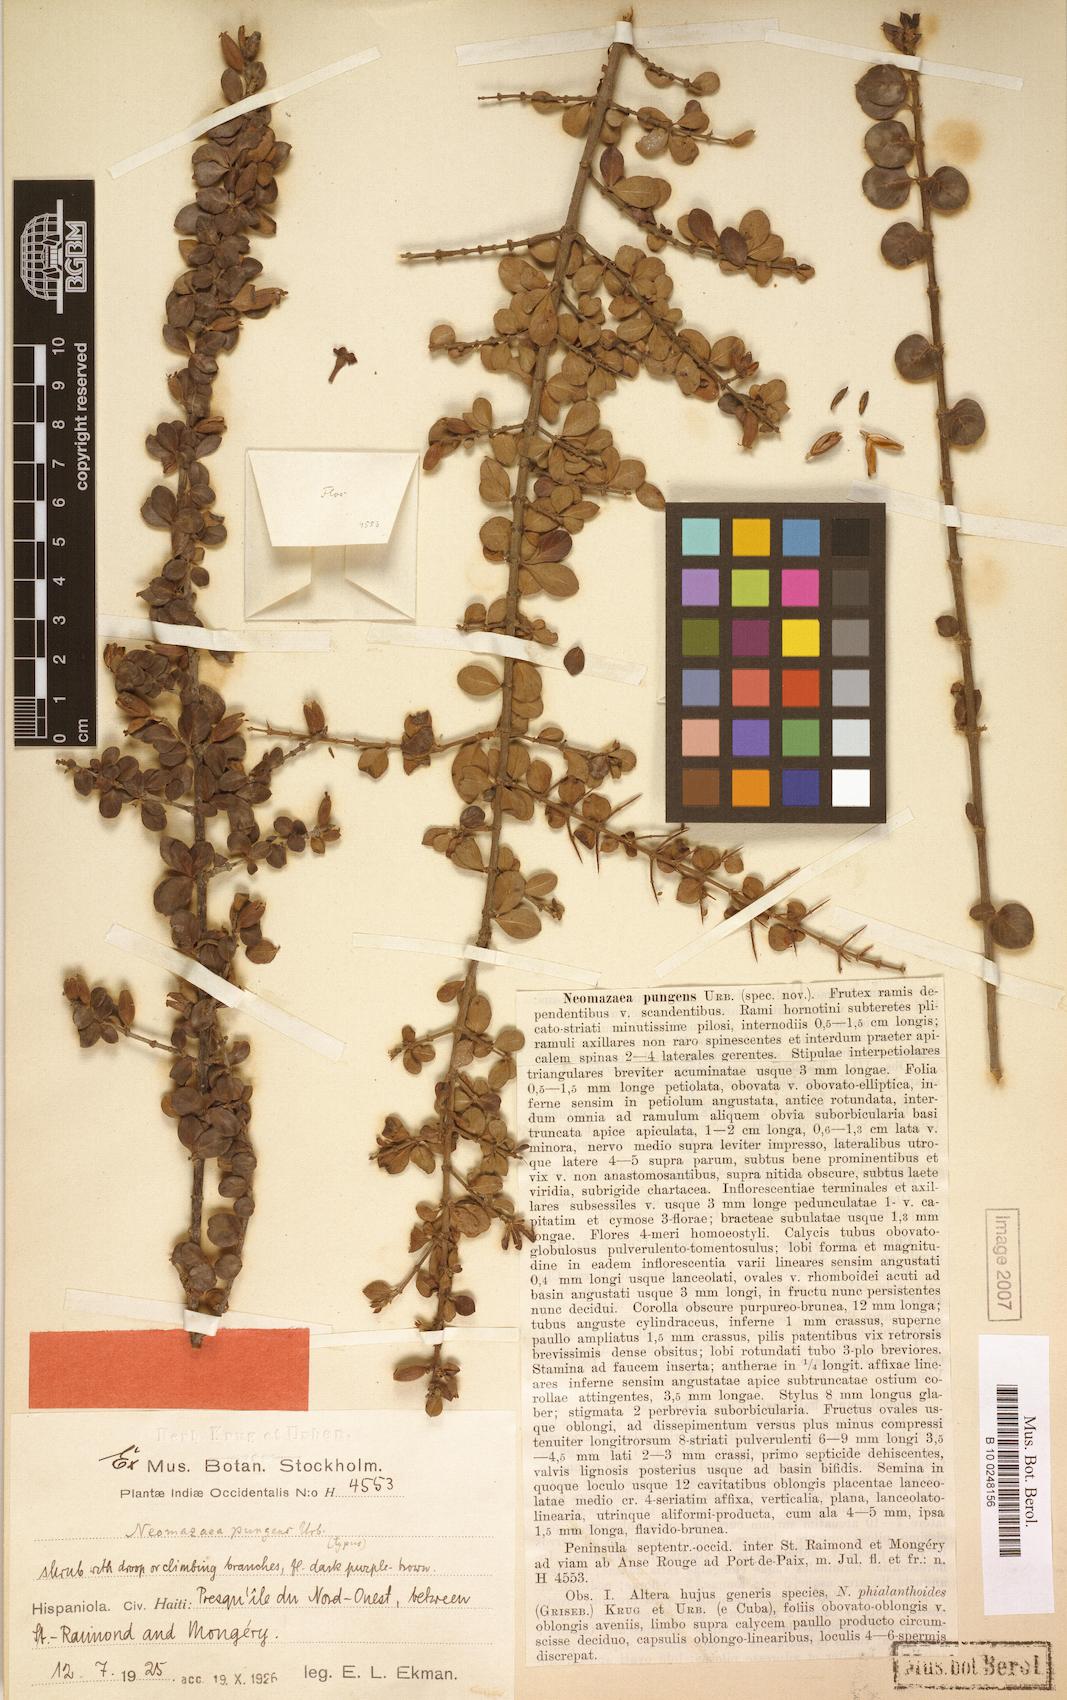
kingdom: Plantae
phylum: Tracheophyta
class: Magnoliopsida
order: Gentianales
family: Rubiaceae
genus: Suberanthus
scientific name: Suberanthus pungens
